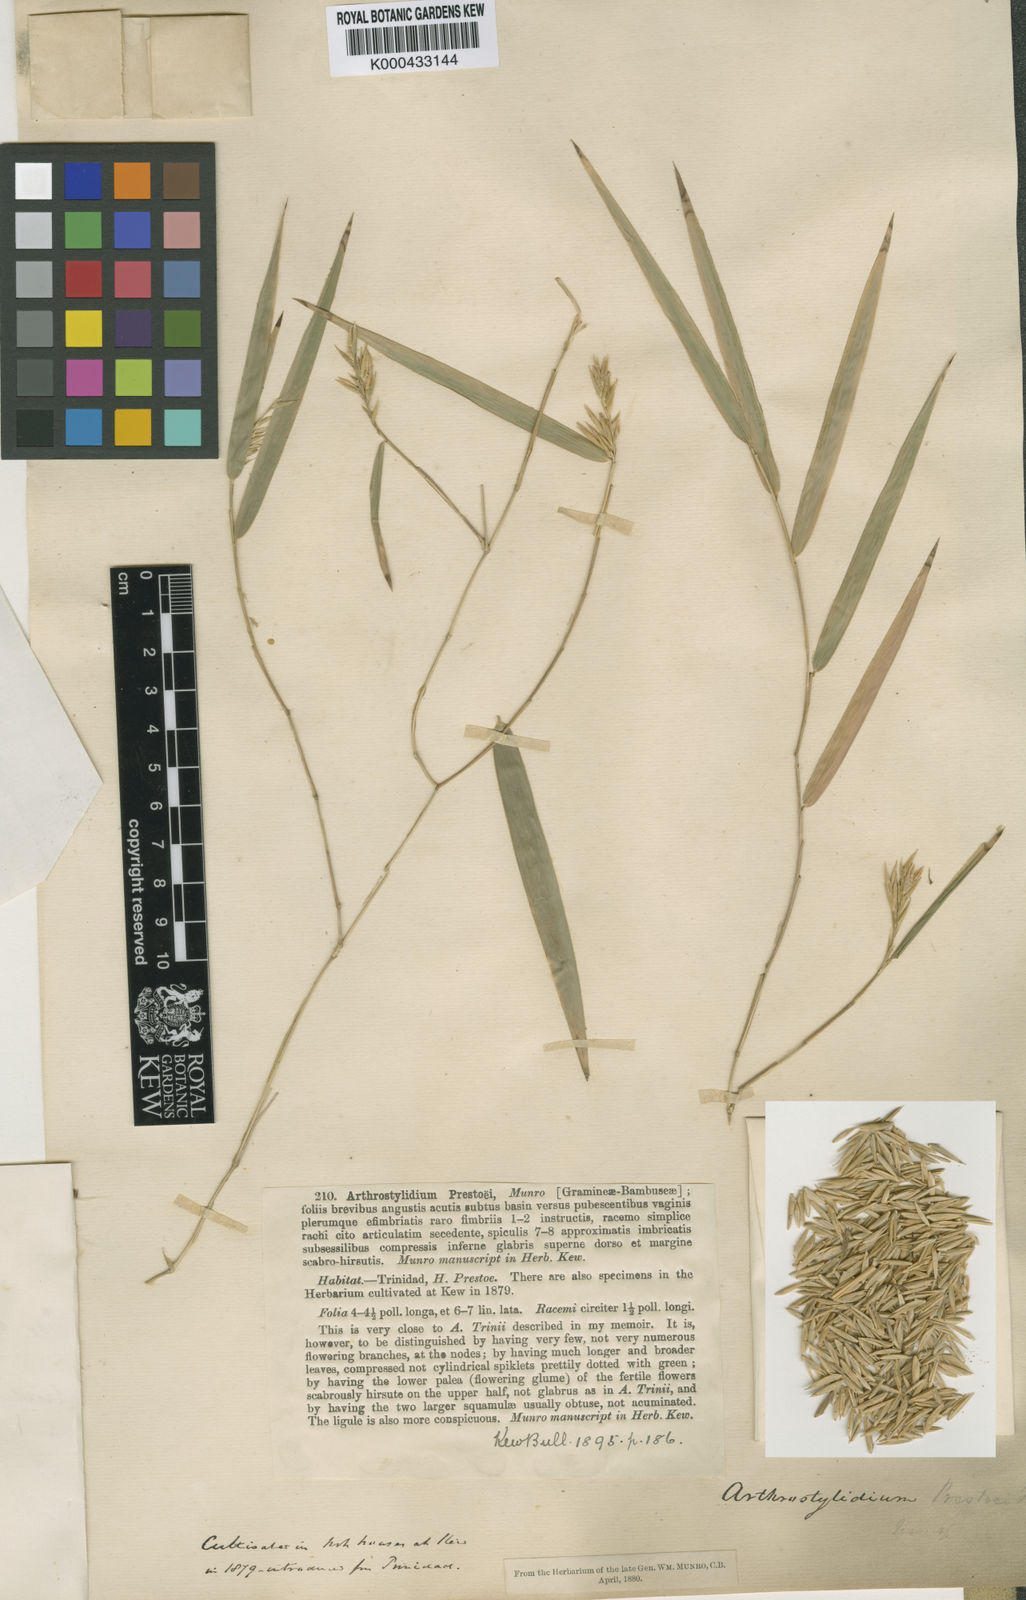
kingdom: Plantae
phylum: Tracheophyta
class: Liliopsida
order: Poales
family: Poaceae
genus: Rhipidocladum
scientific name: Rhipidocladum prestoei
